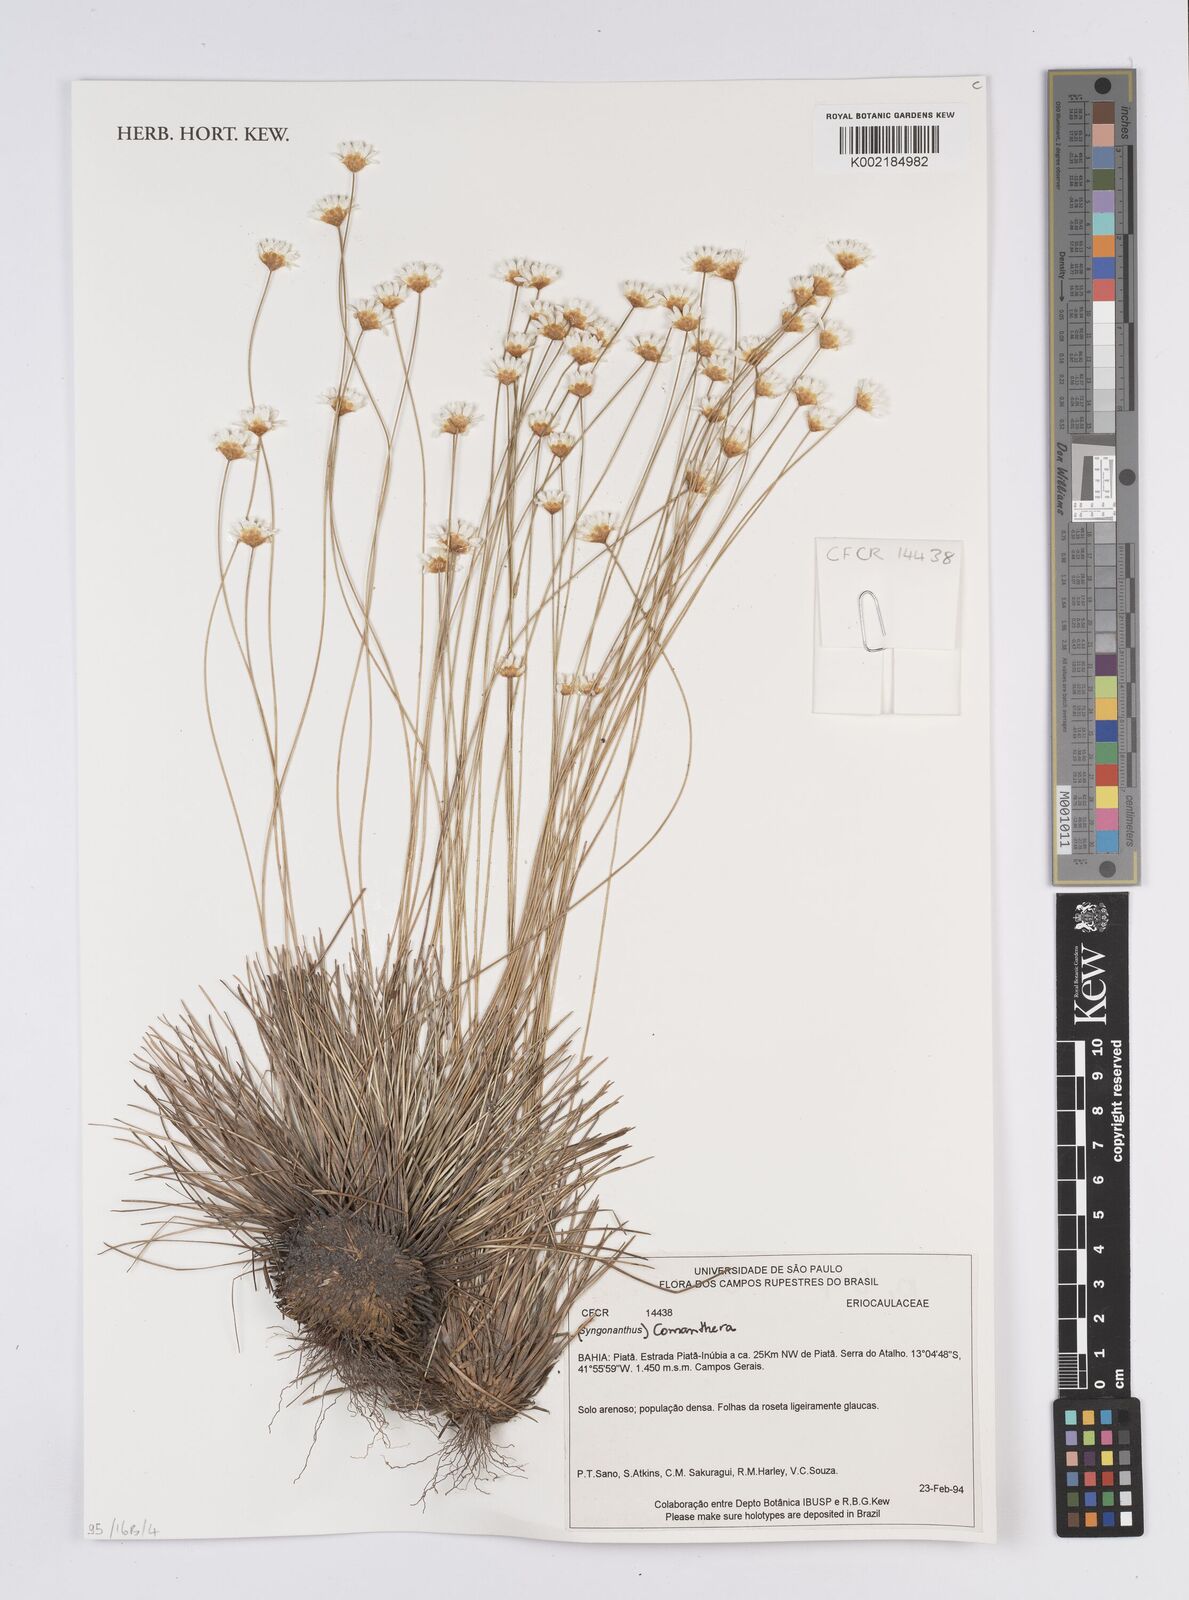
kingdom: Plantae
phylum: Tracheophyta
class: Liliopsida
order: Poales
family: Eriocaulaceae
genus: Comanthera
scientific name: Comanthera
